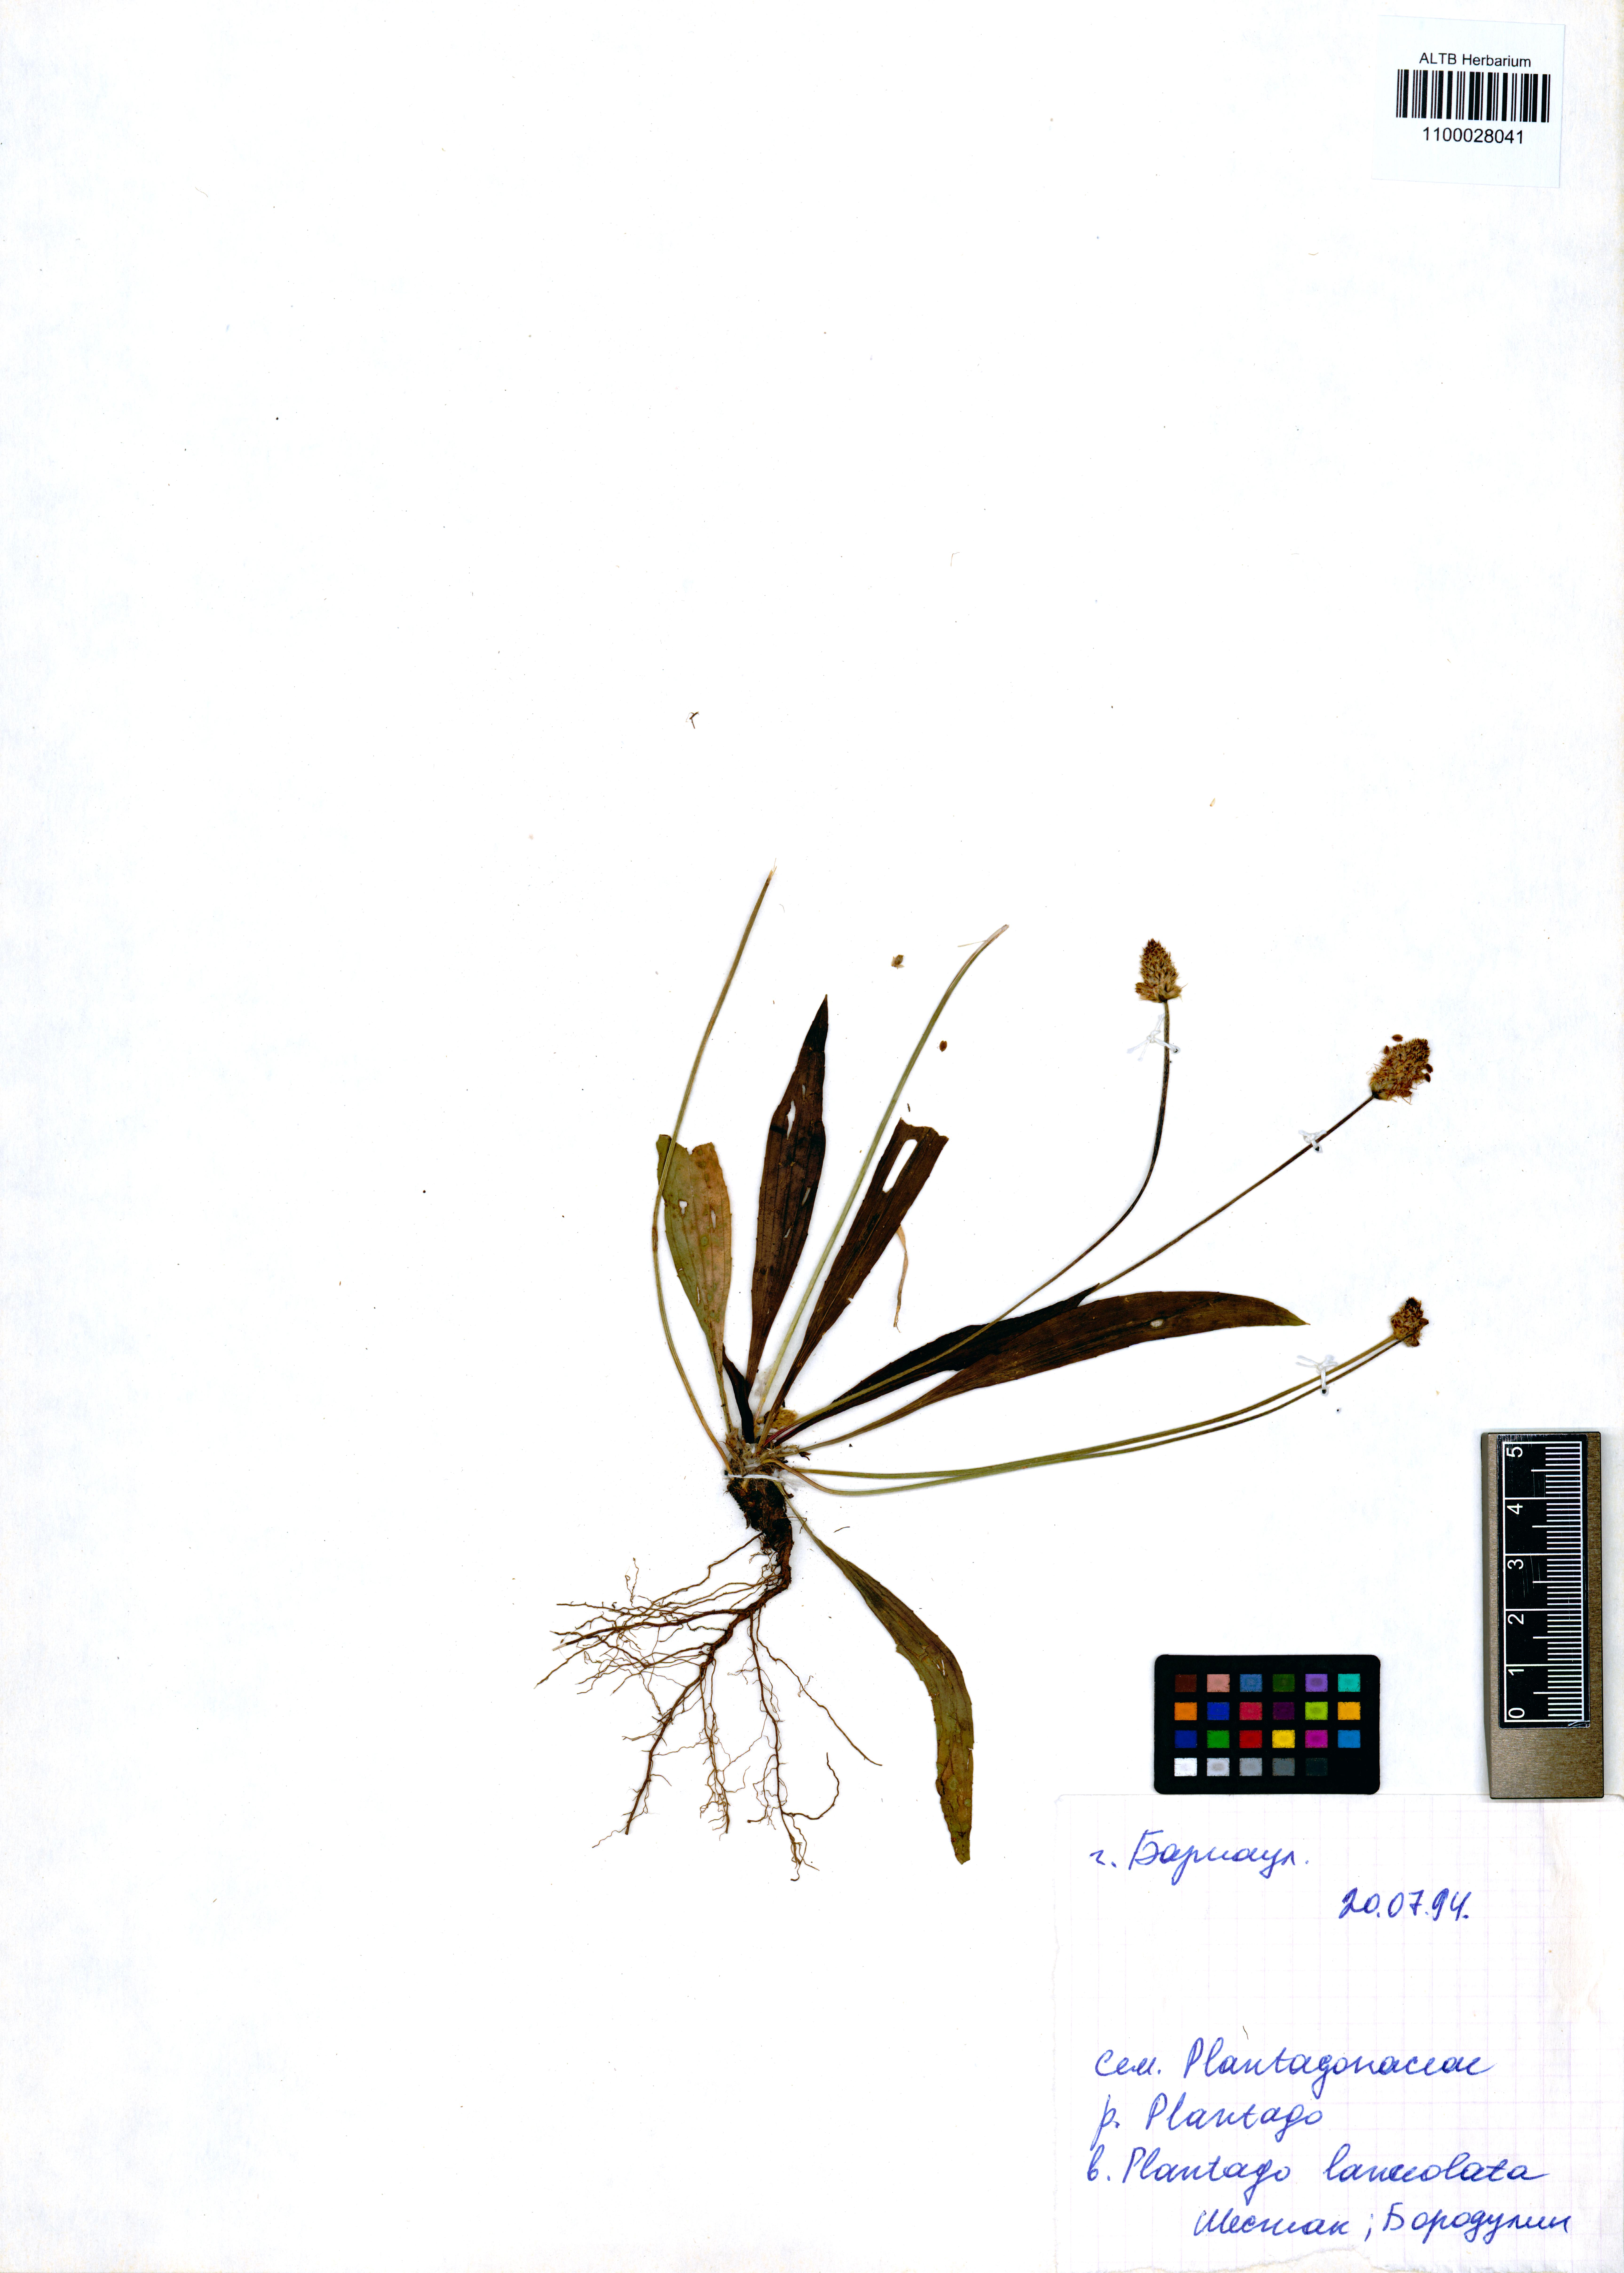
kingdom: Plantae
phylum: Tracheophyta
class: Magnoliopsida
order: Lamiales
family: Plantaginaceae
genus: Plantago
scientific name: Plantago lanceolata
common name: Ribwort plantain
